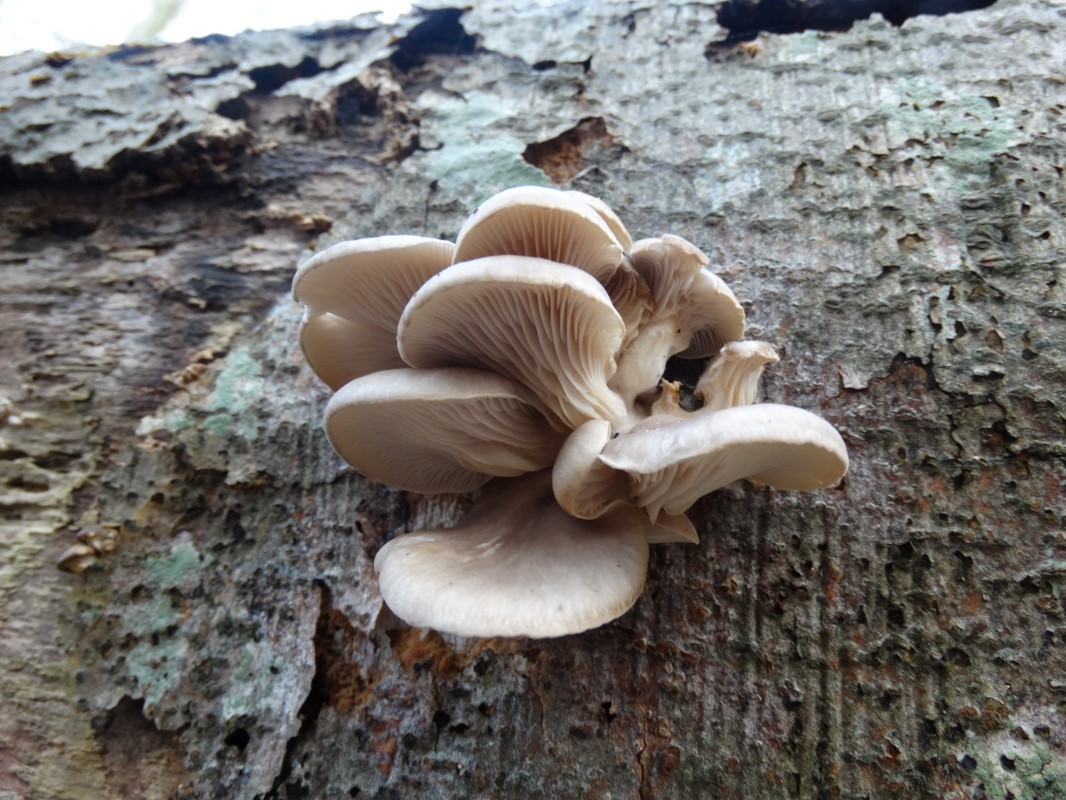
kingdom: Fungi
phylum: Basidiomycota
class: Agaricomycetes
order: Agaricales
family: Pleurotaceae
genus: Pleurotus
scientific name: Pleurotus ostreatus
